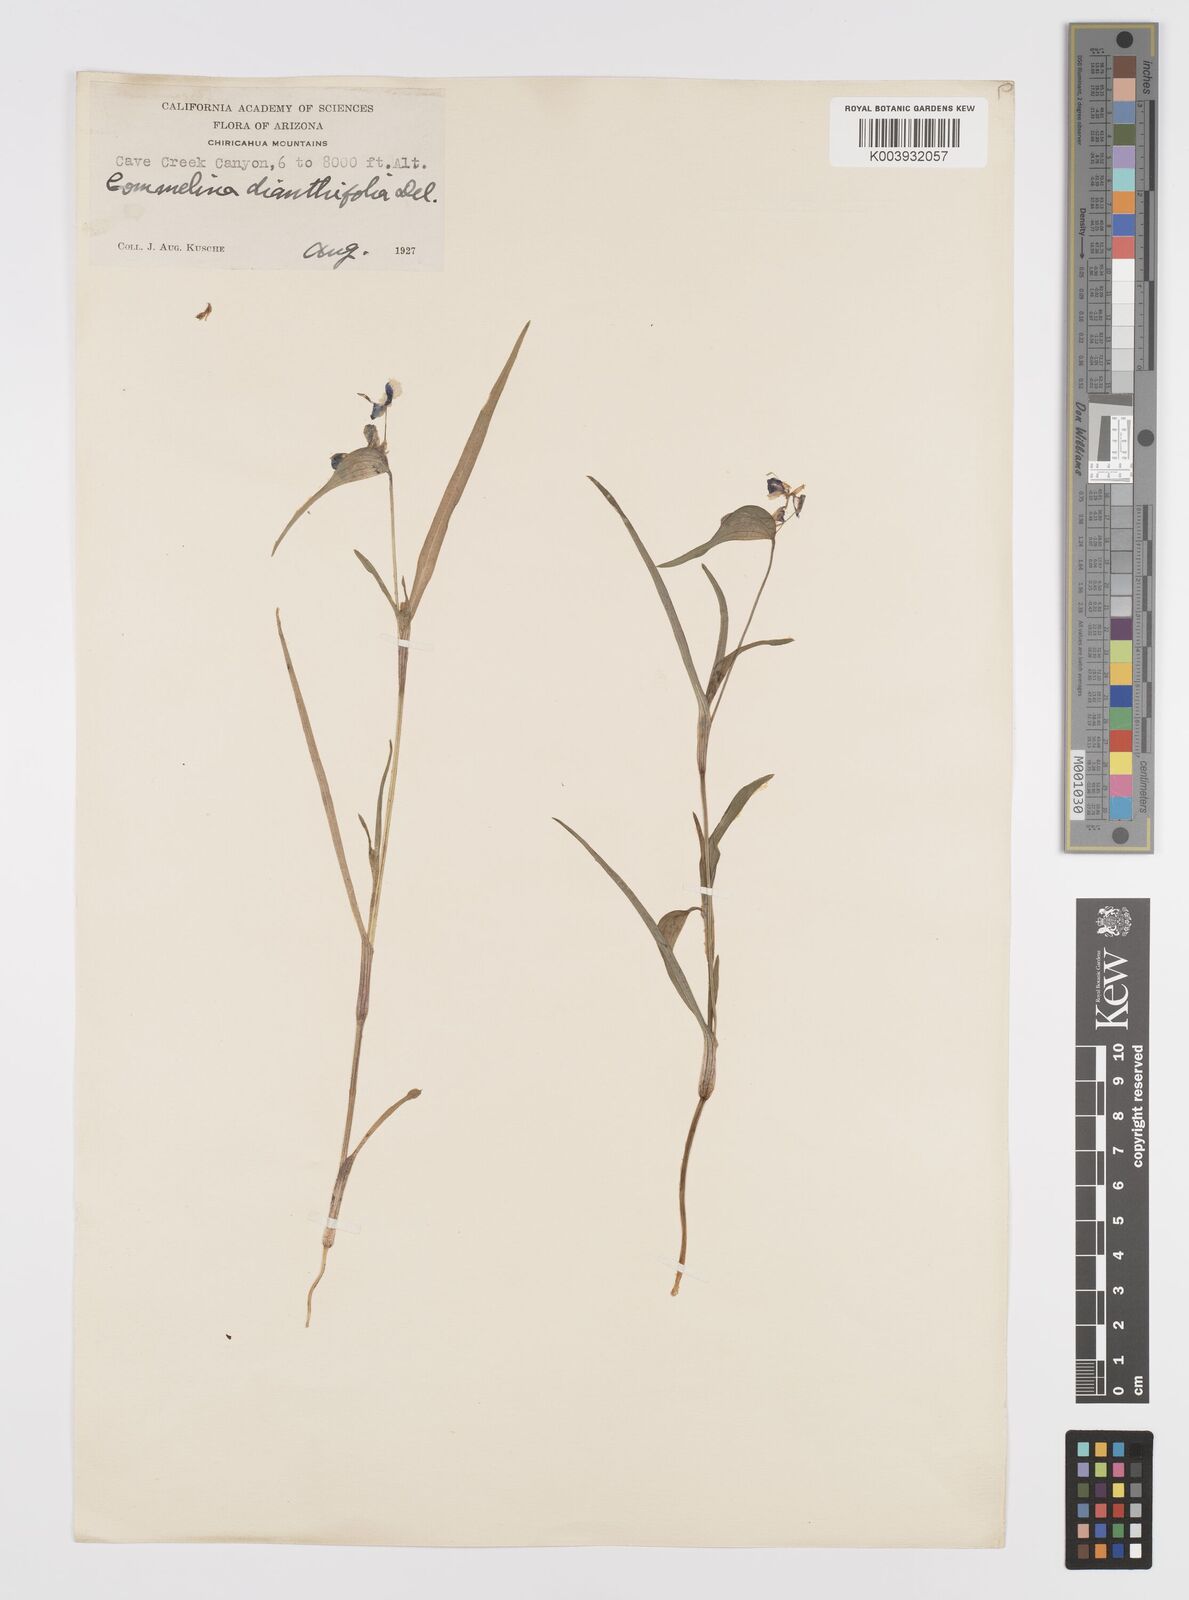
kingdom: Plantae
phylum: Tracheophyta
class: Liliopsida
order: Commelinales
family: Commelinaceae
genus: Commelina
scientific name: Commelina dianthifolia
